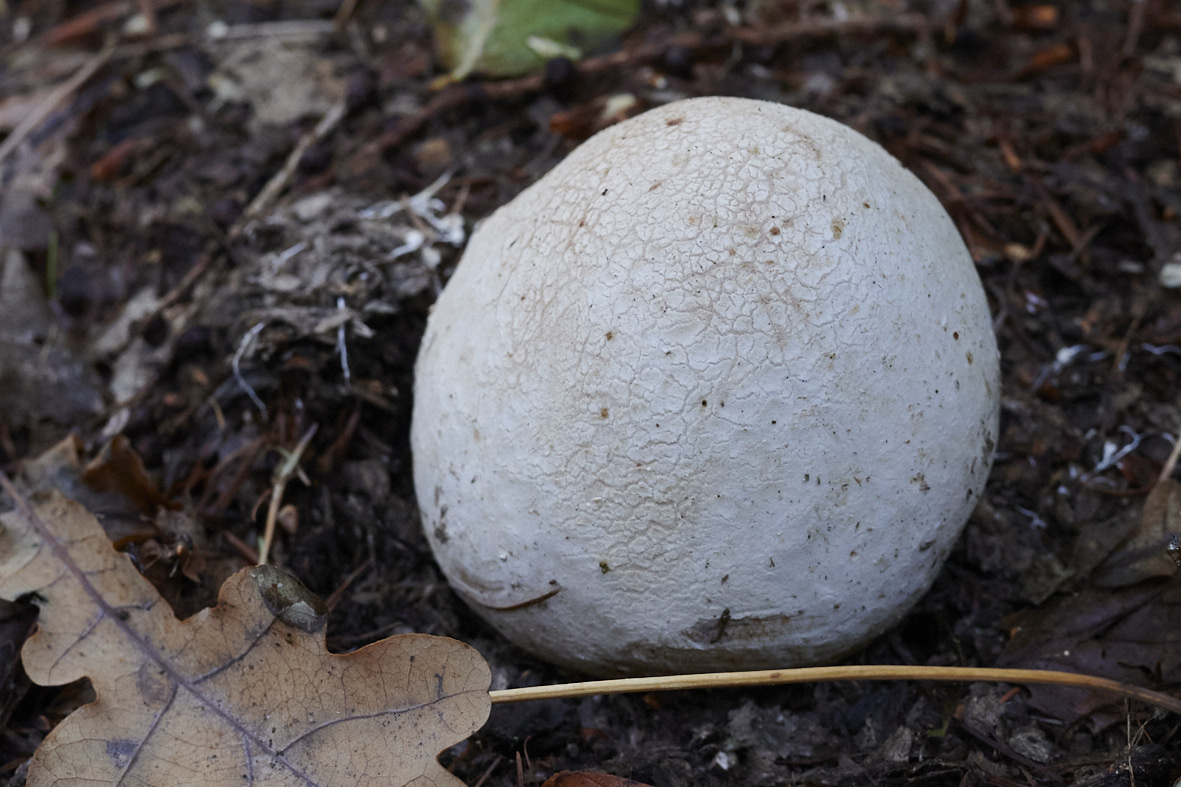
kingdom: Fungi
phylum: Basidiomycota
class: Agaricomycetes
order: Phallales
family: Phallaceae
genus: Phallus
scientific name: Phallus impudicus
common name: almindelig stinksvamp
